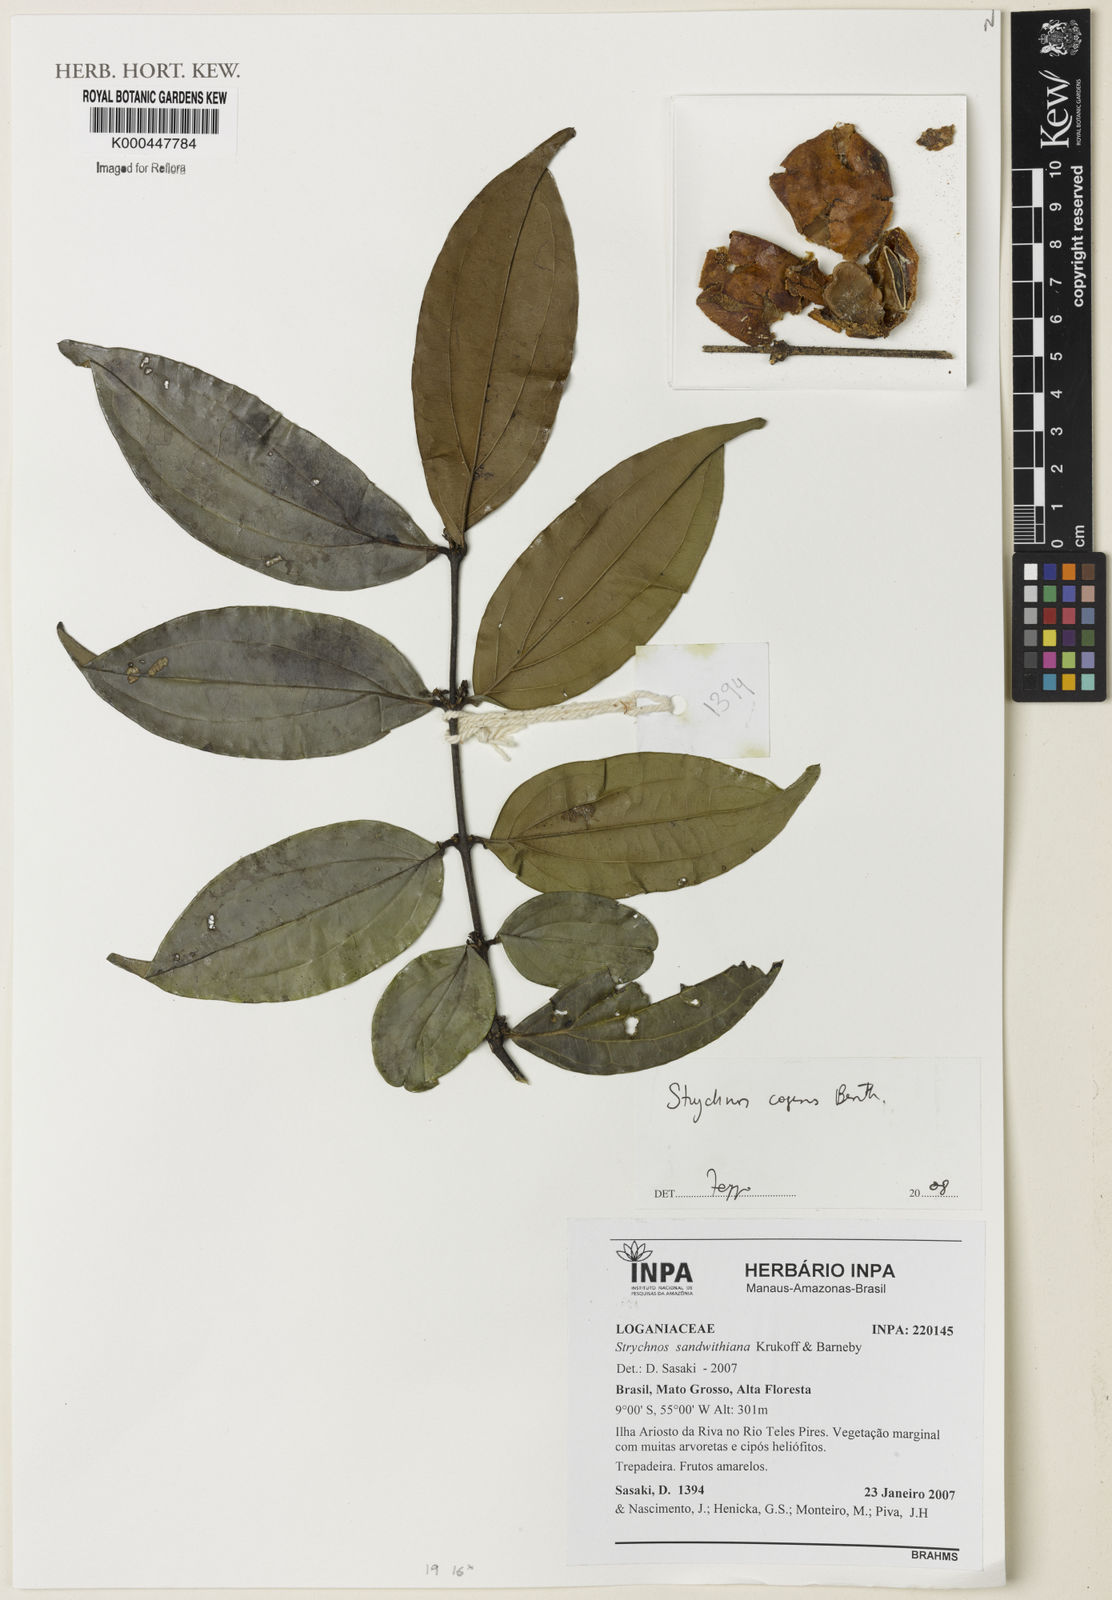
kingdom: Plantae
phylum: Tracheophyta
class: Magnoliopsida
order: Gentianales
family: Loganiaceae
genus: Strychnos
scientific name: Strychnos cogens
